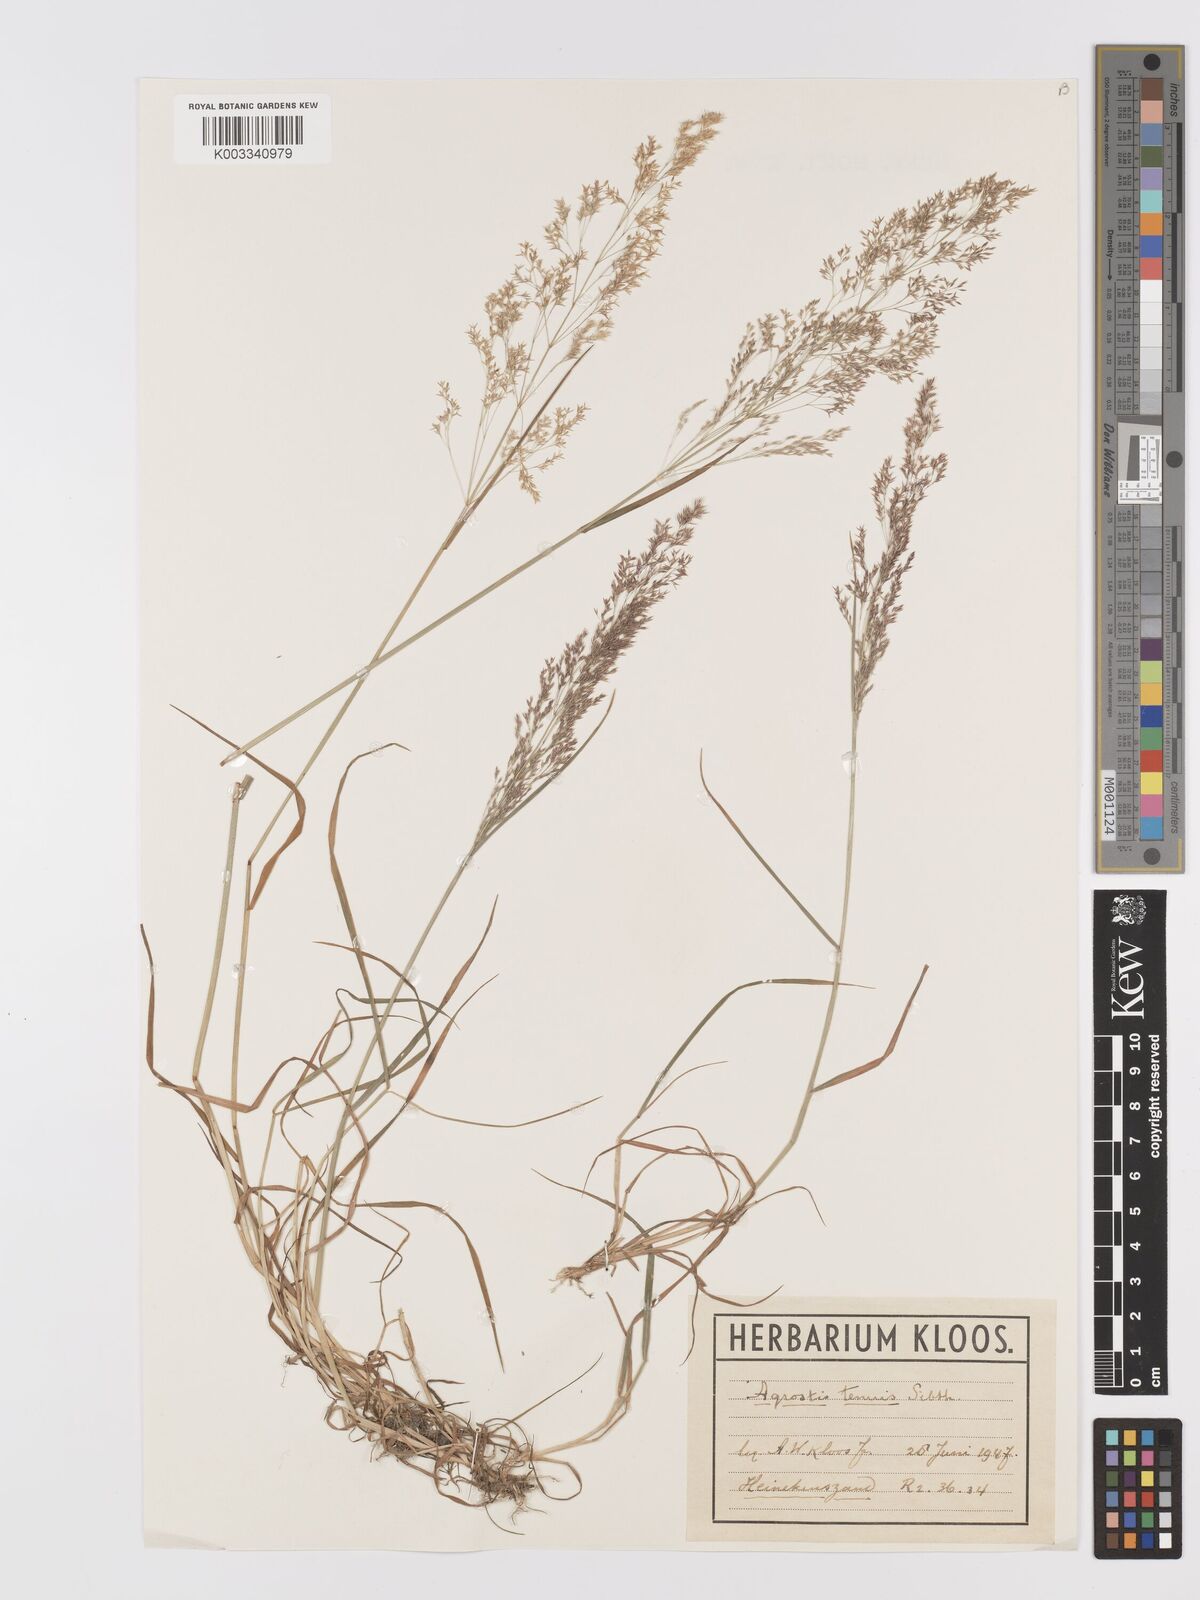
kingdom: Plantae
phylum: Tracheophyta
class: Liliopsida
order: Poales
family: Poaceae
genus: Agrostis
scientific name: Agrostis capillaris
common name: Colonial bentgrass
